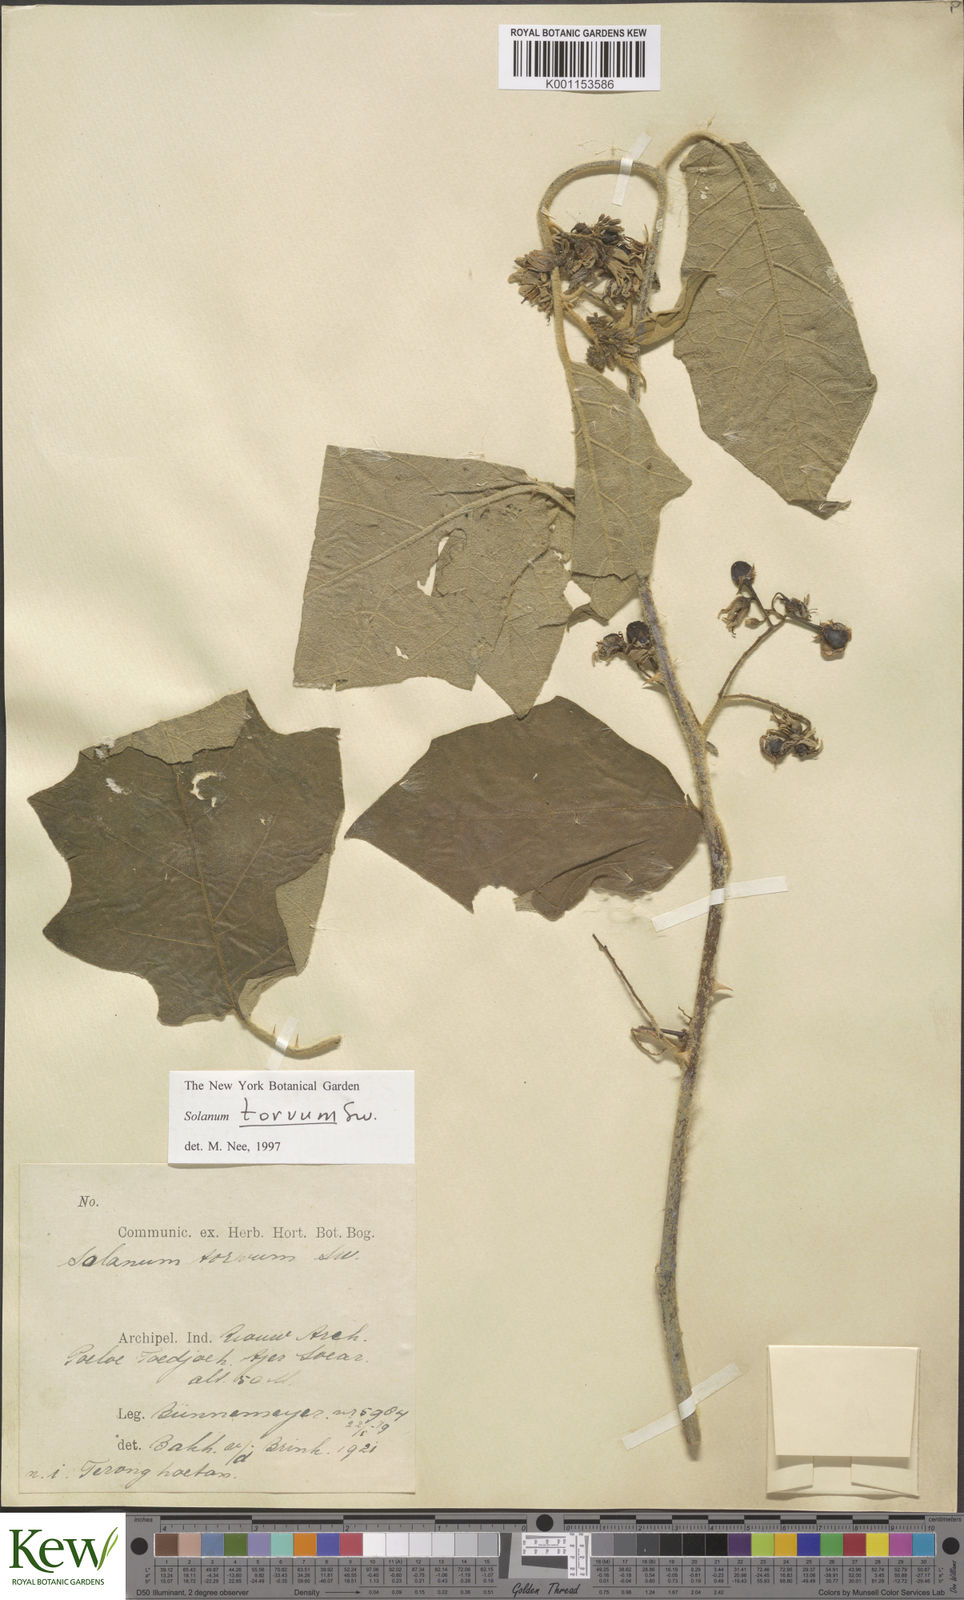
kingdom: Plantae
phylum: Tracheophyta
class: Magnoliopsida
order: Solanales
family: Solanaceae
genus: Solanum
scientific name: Solanum torvum
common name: Turkey berry
